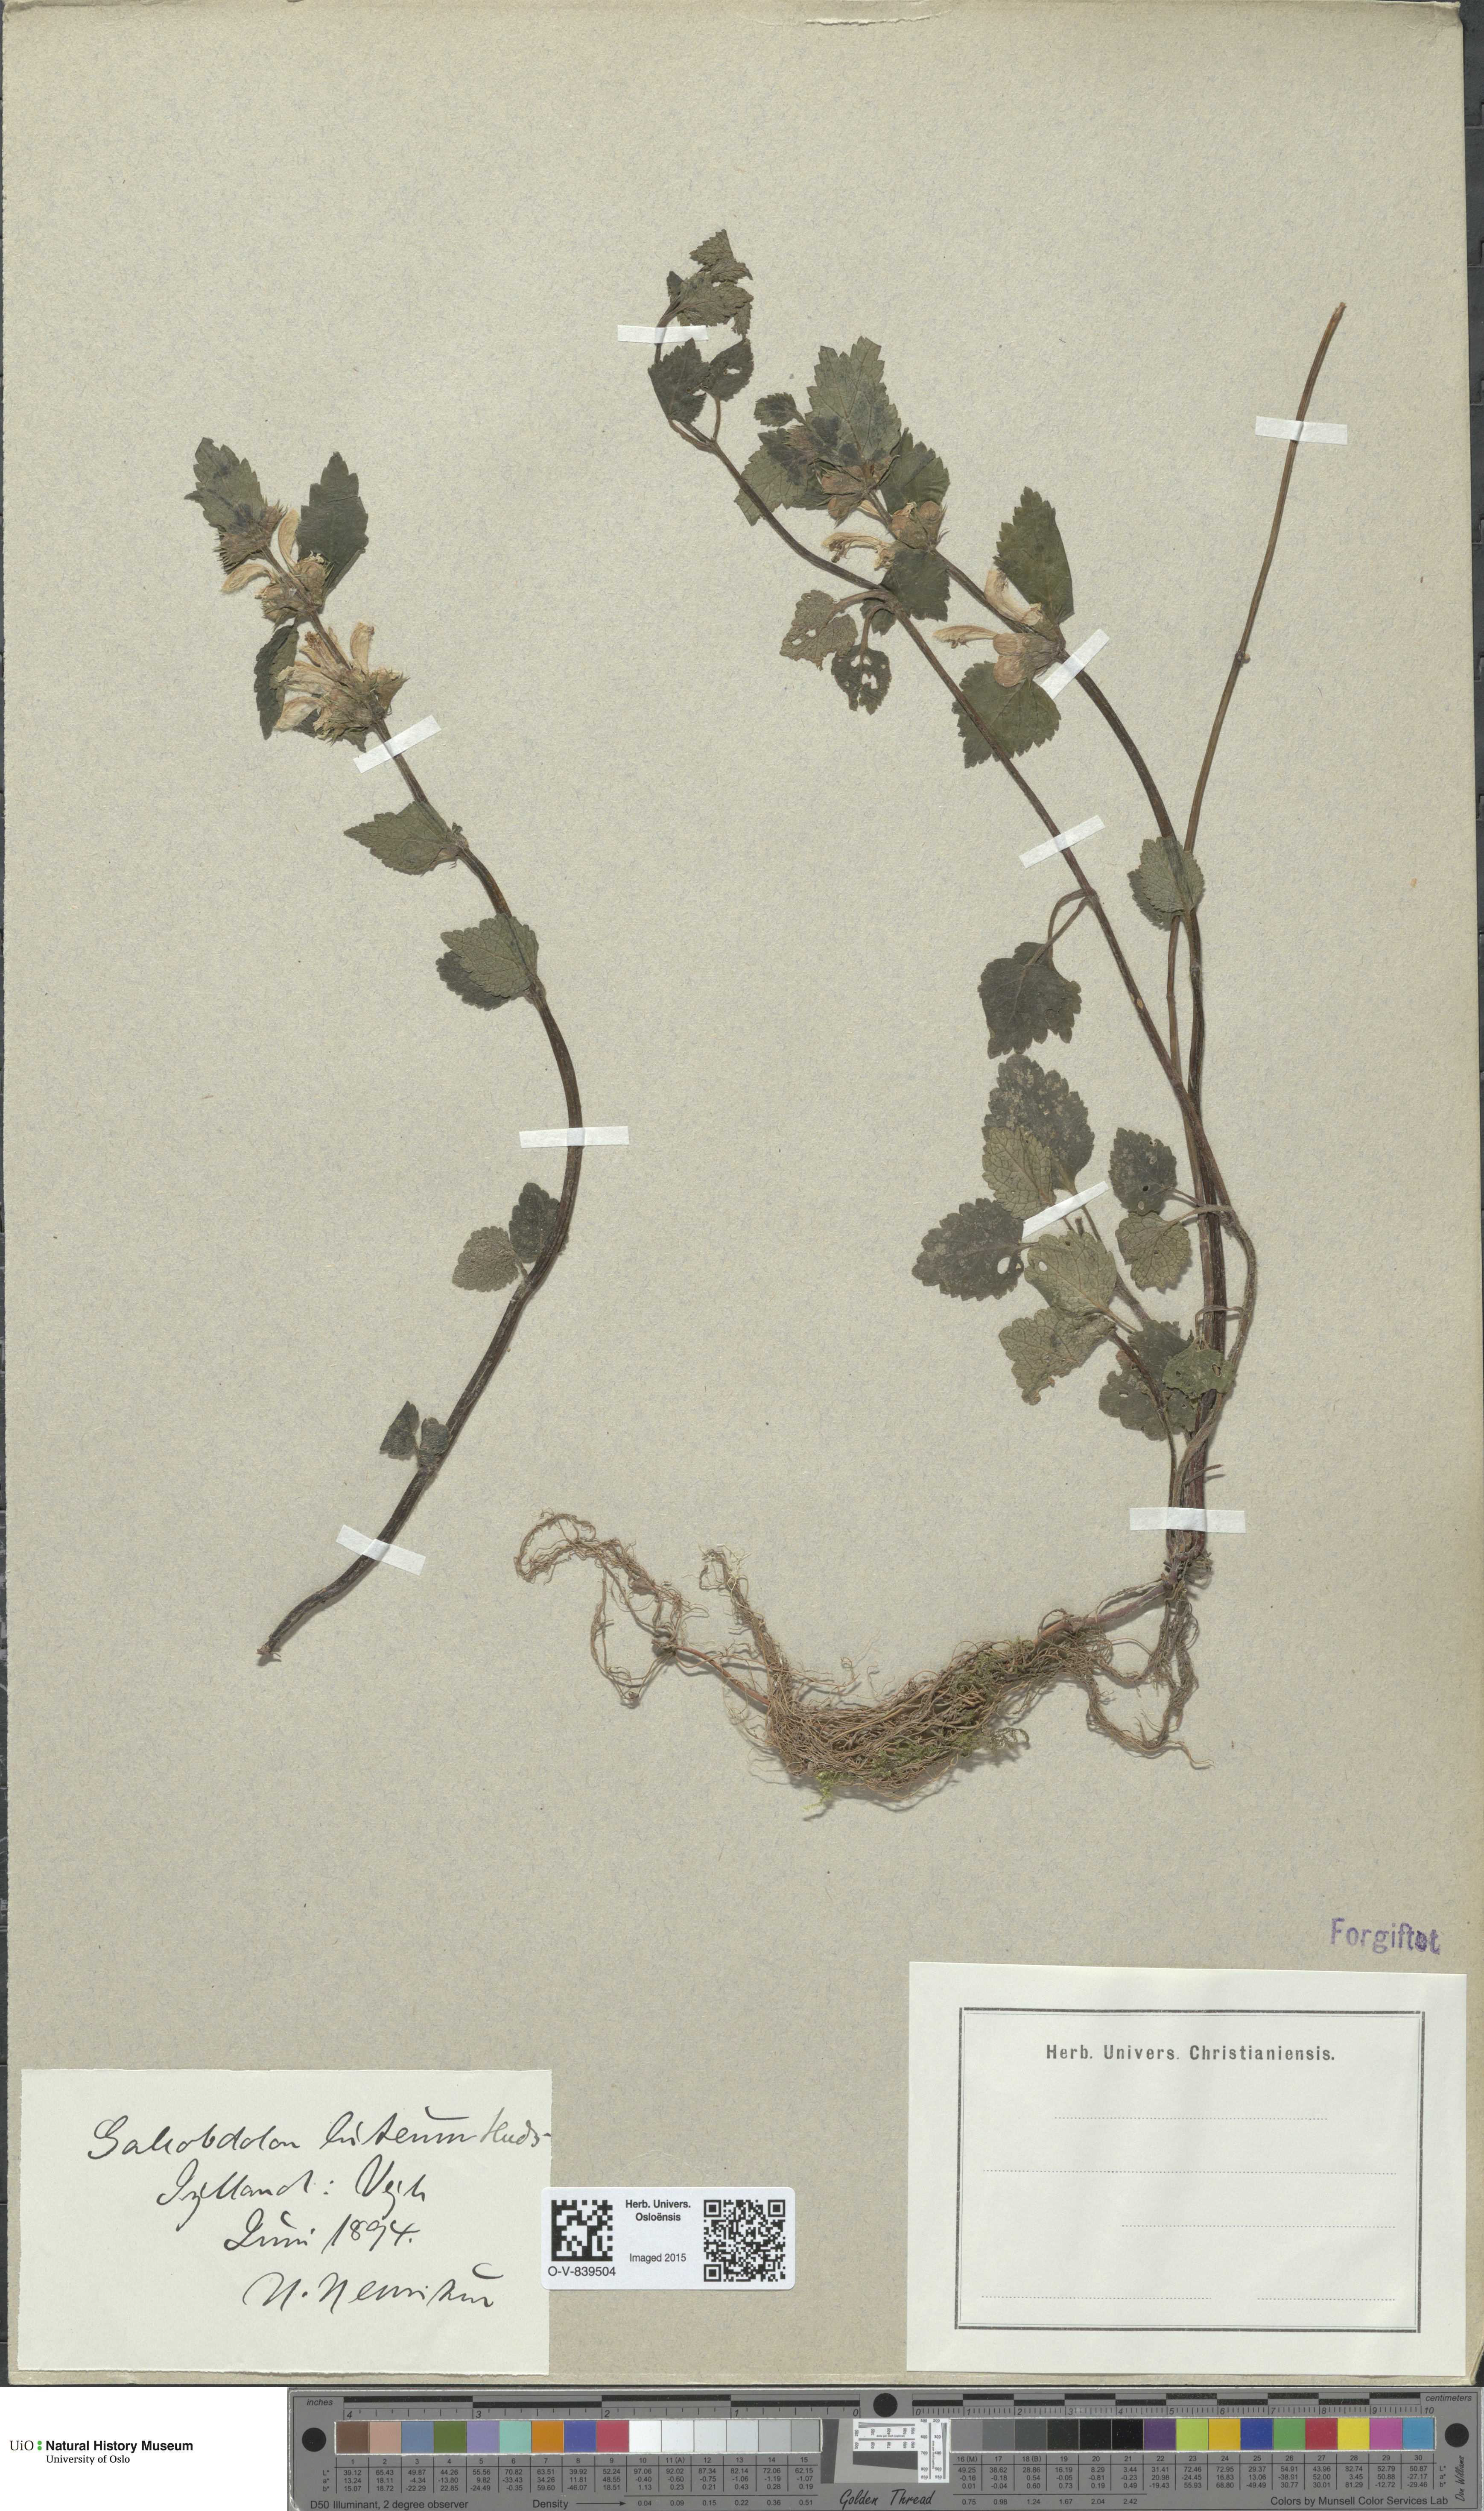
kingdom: Plantae
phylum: Tracheophyta
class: Magnoliopsida
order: Lamiales
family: Lamiaceae
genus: Lamium
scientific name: Lamium galeobdolon
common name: Yellow archangel
